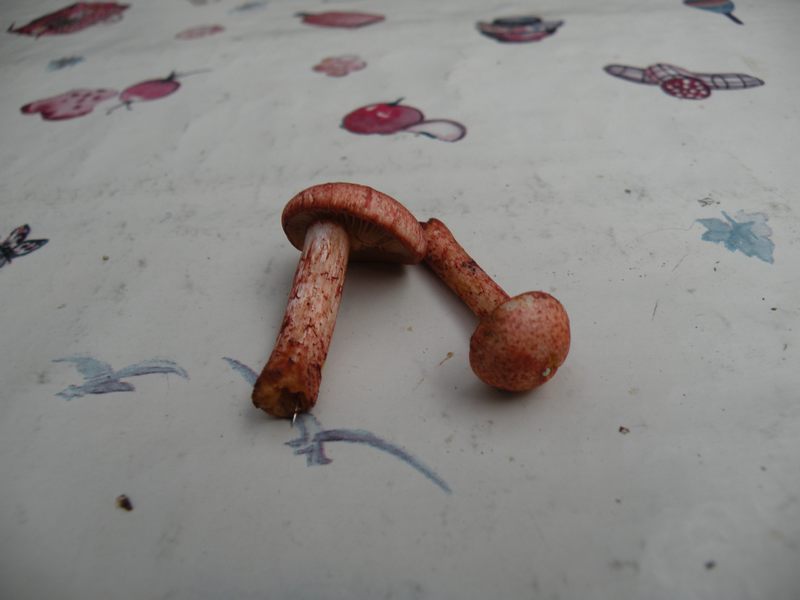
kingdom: Fungi
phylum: Basidiomycota
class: Agaricomycetes
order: Agaricales
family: Cortinariaceae
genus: Cortinarius
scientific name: Cortinarius bolaris
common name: cinnoberskællet slørhat
